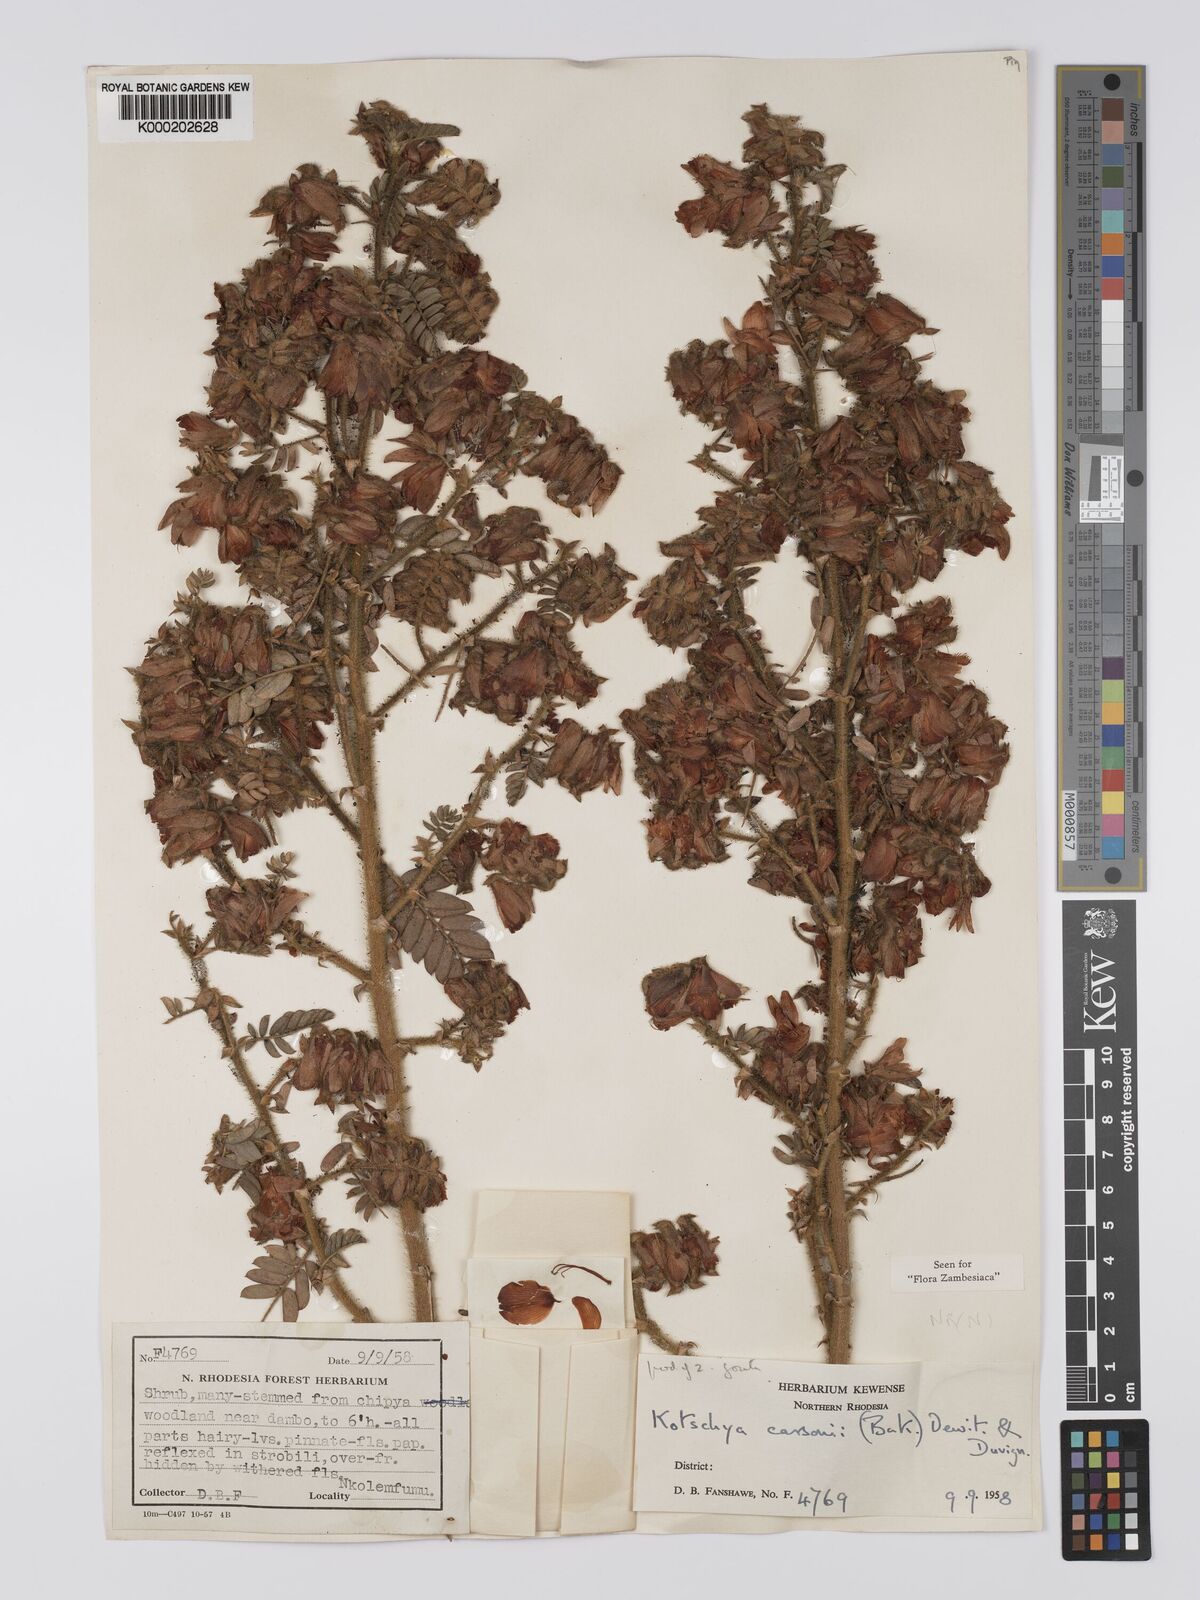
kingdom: Plantae
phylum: Tracheophyta
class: Magnoliopsida
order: Fabales
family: Fabaceae
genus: Kotschya
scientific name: Kotschya carsonii
